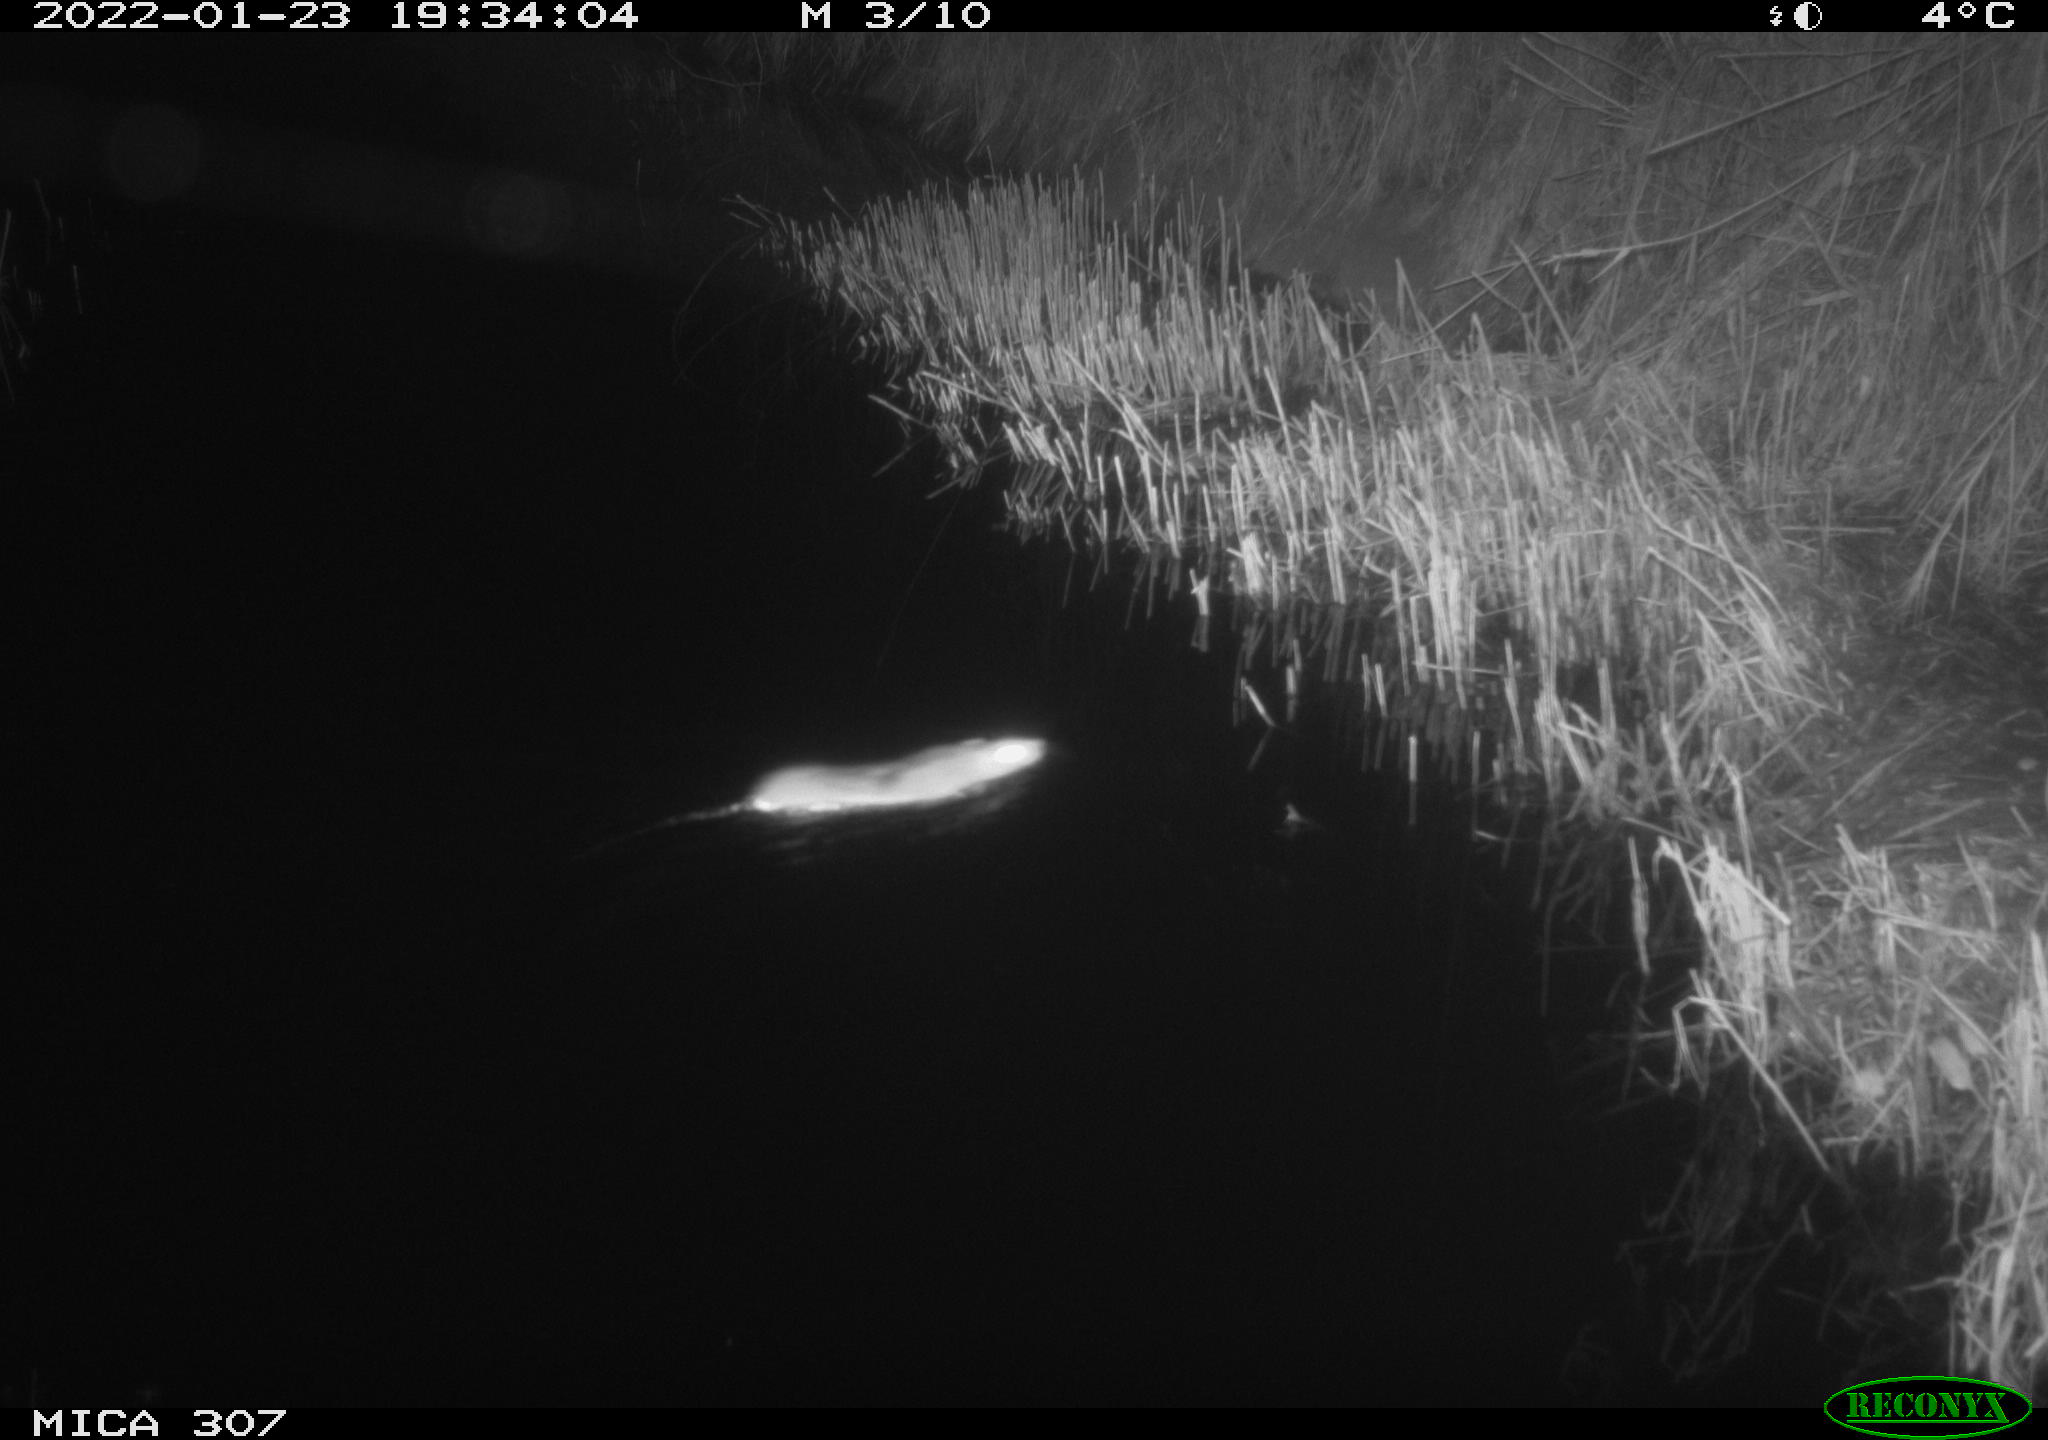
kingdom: Animalia
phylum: Chordata
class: Mammalia
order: Rodentia
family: Muridae
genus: Rattus
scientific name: Rattus norvegicus
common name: Brown rat
